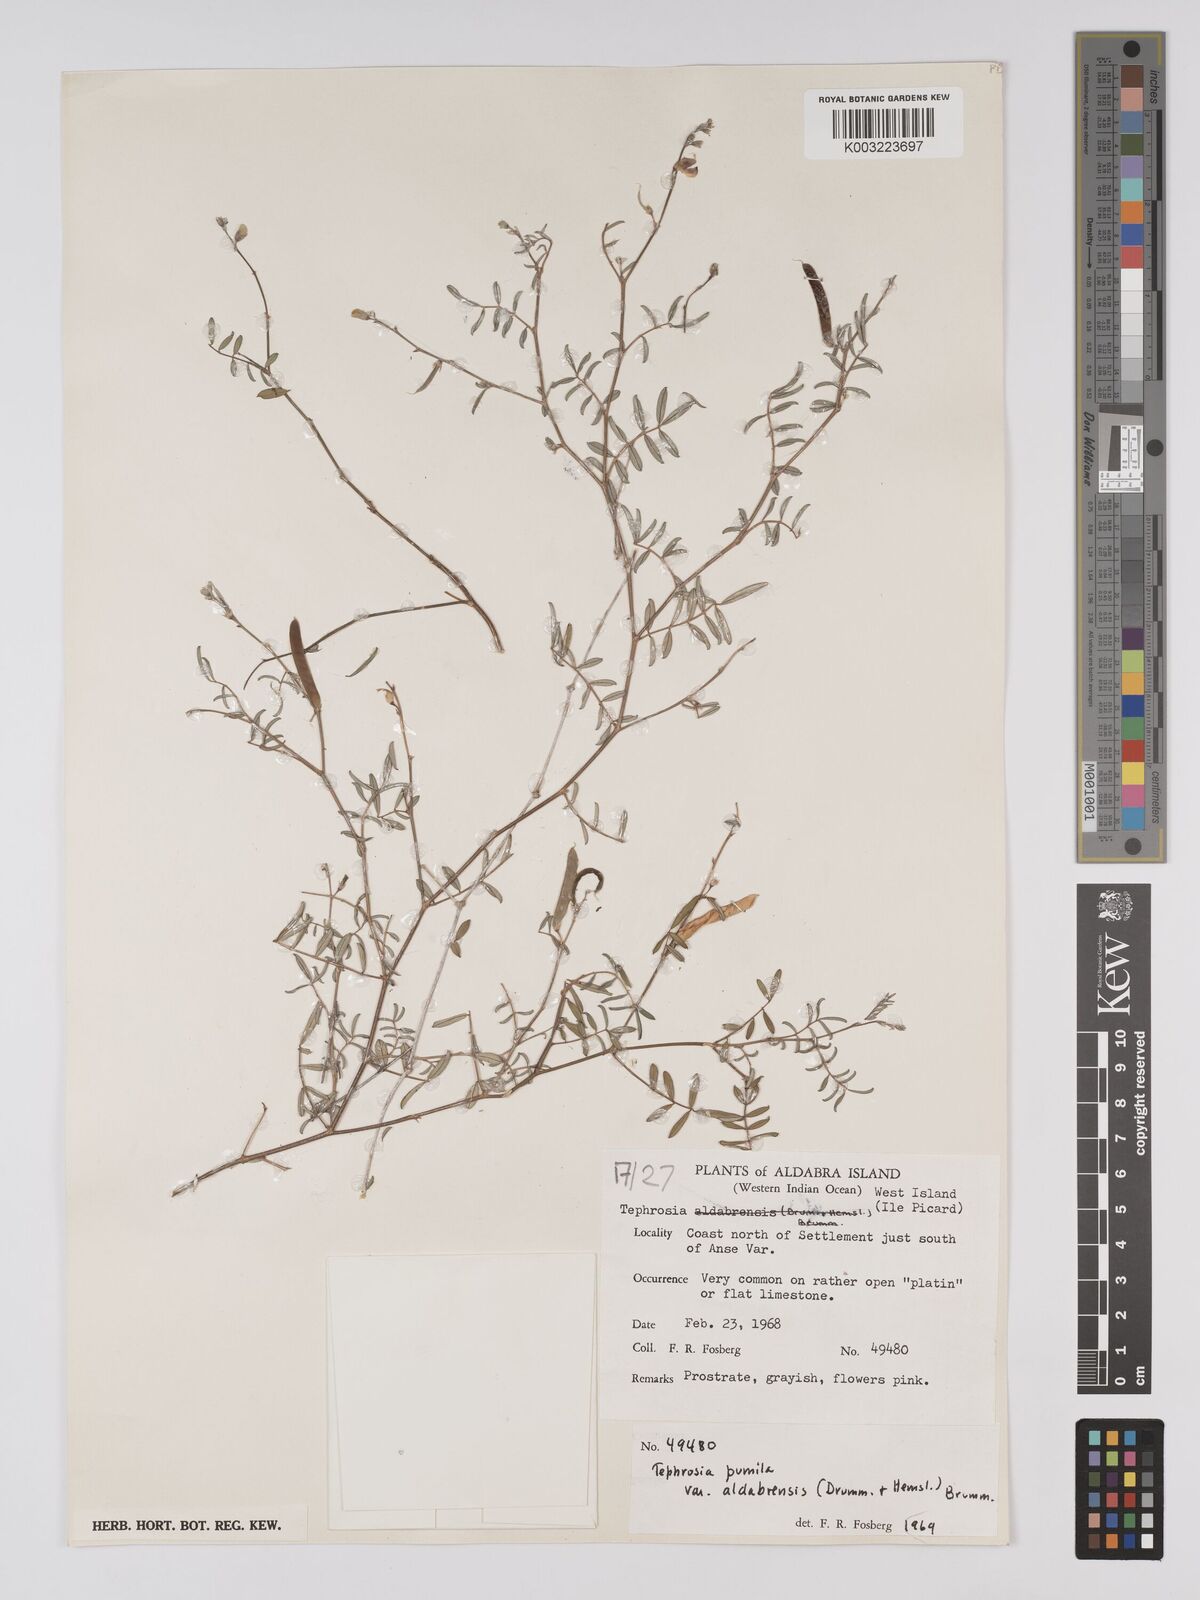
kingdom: Plantae
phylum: Tracheophyta
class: Magnoliopsida
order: Fabales
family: Fabaceae
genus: Tephrosia
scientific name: Tephrosia pumila
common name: Indigo sauvage
